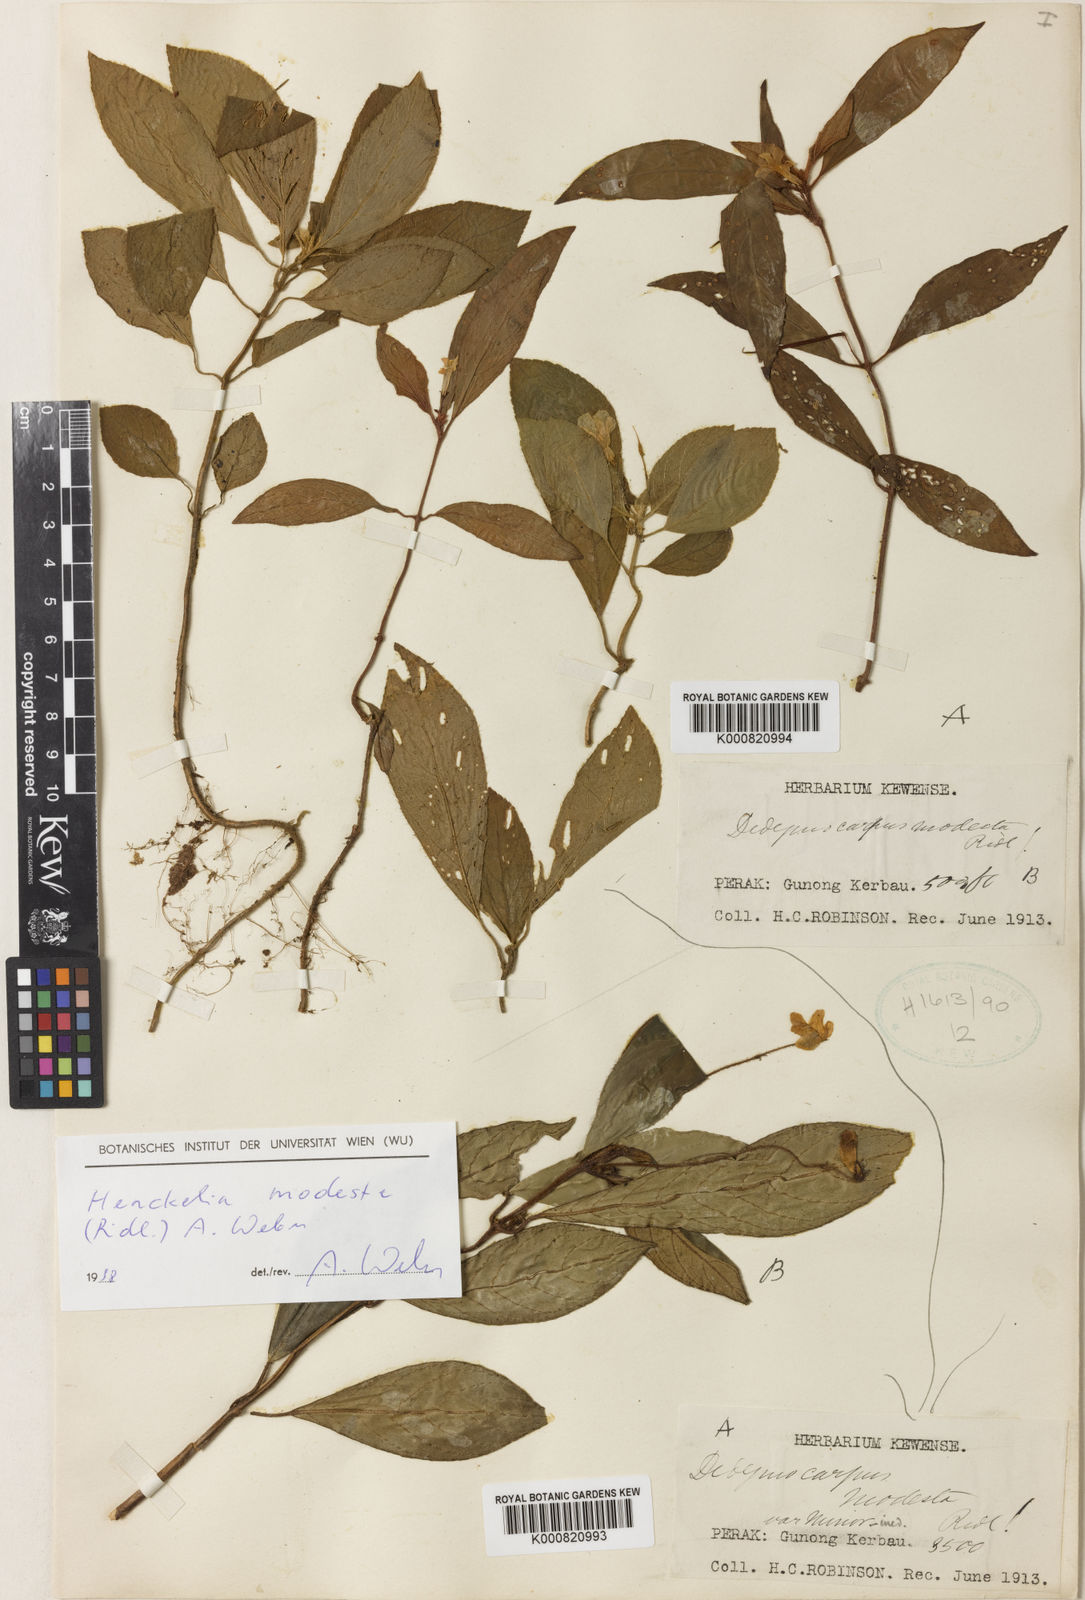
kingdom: Plantae
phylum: Tracheophyta
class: Magnoliopsida
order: Lamiales
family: Gesneriaceae
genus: Codonoboea
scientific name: Codonoboea modesta
